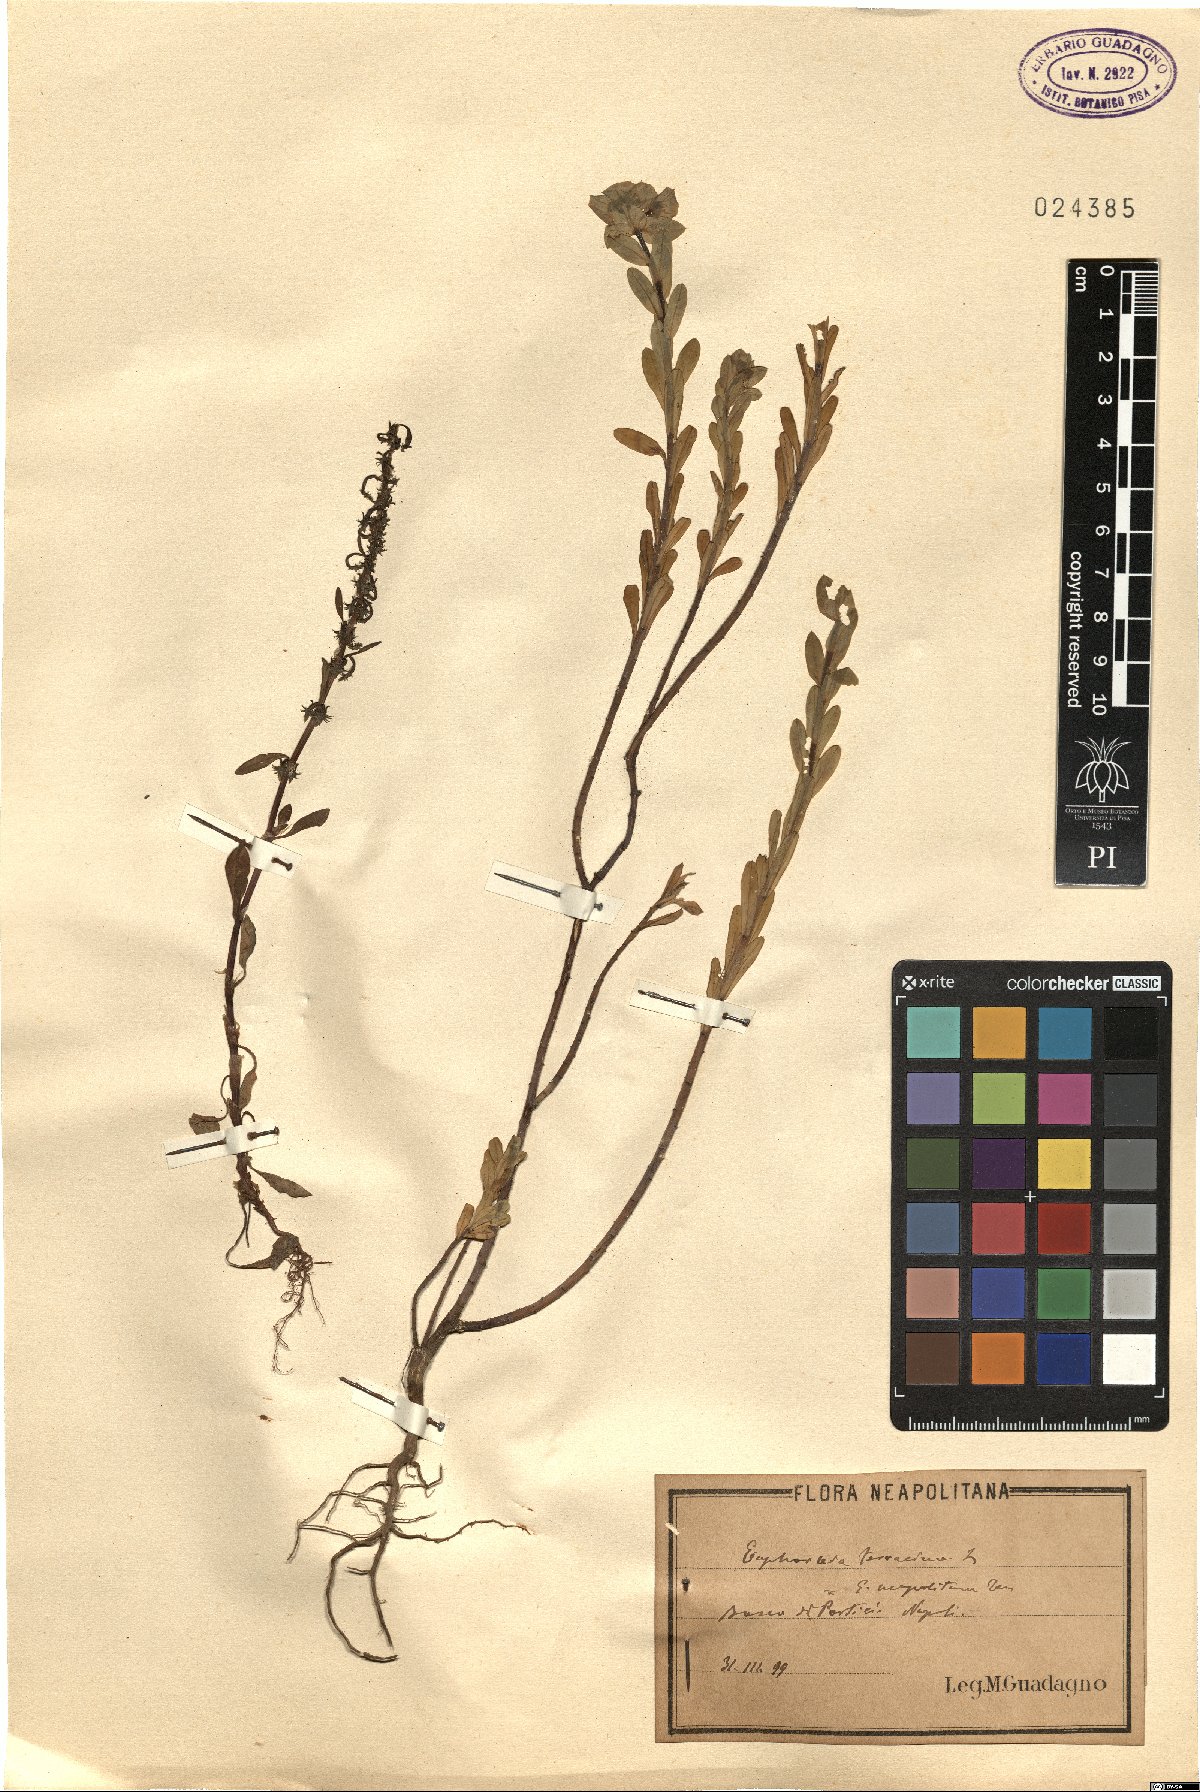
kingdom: Plantae
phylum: Tracheophyta
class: Magnoliopsida
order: Malpighiales
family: Euphorbiaceae
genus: Euphorbia
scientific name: Euphorbia terracina
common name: Geraldton carnation weed
